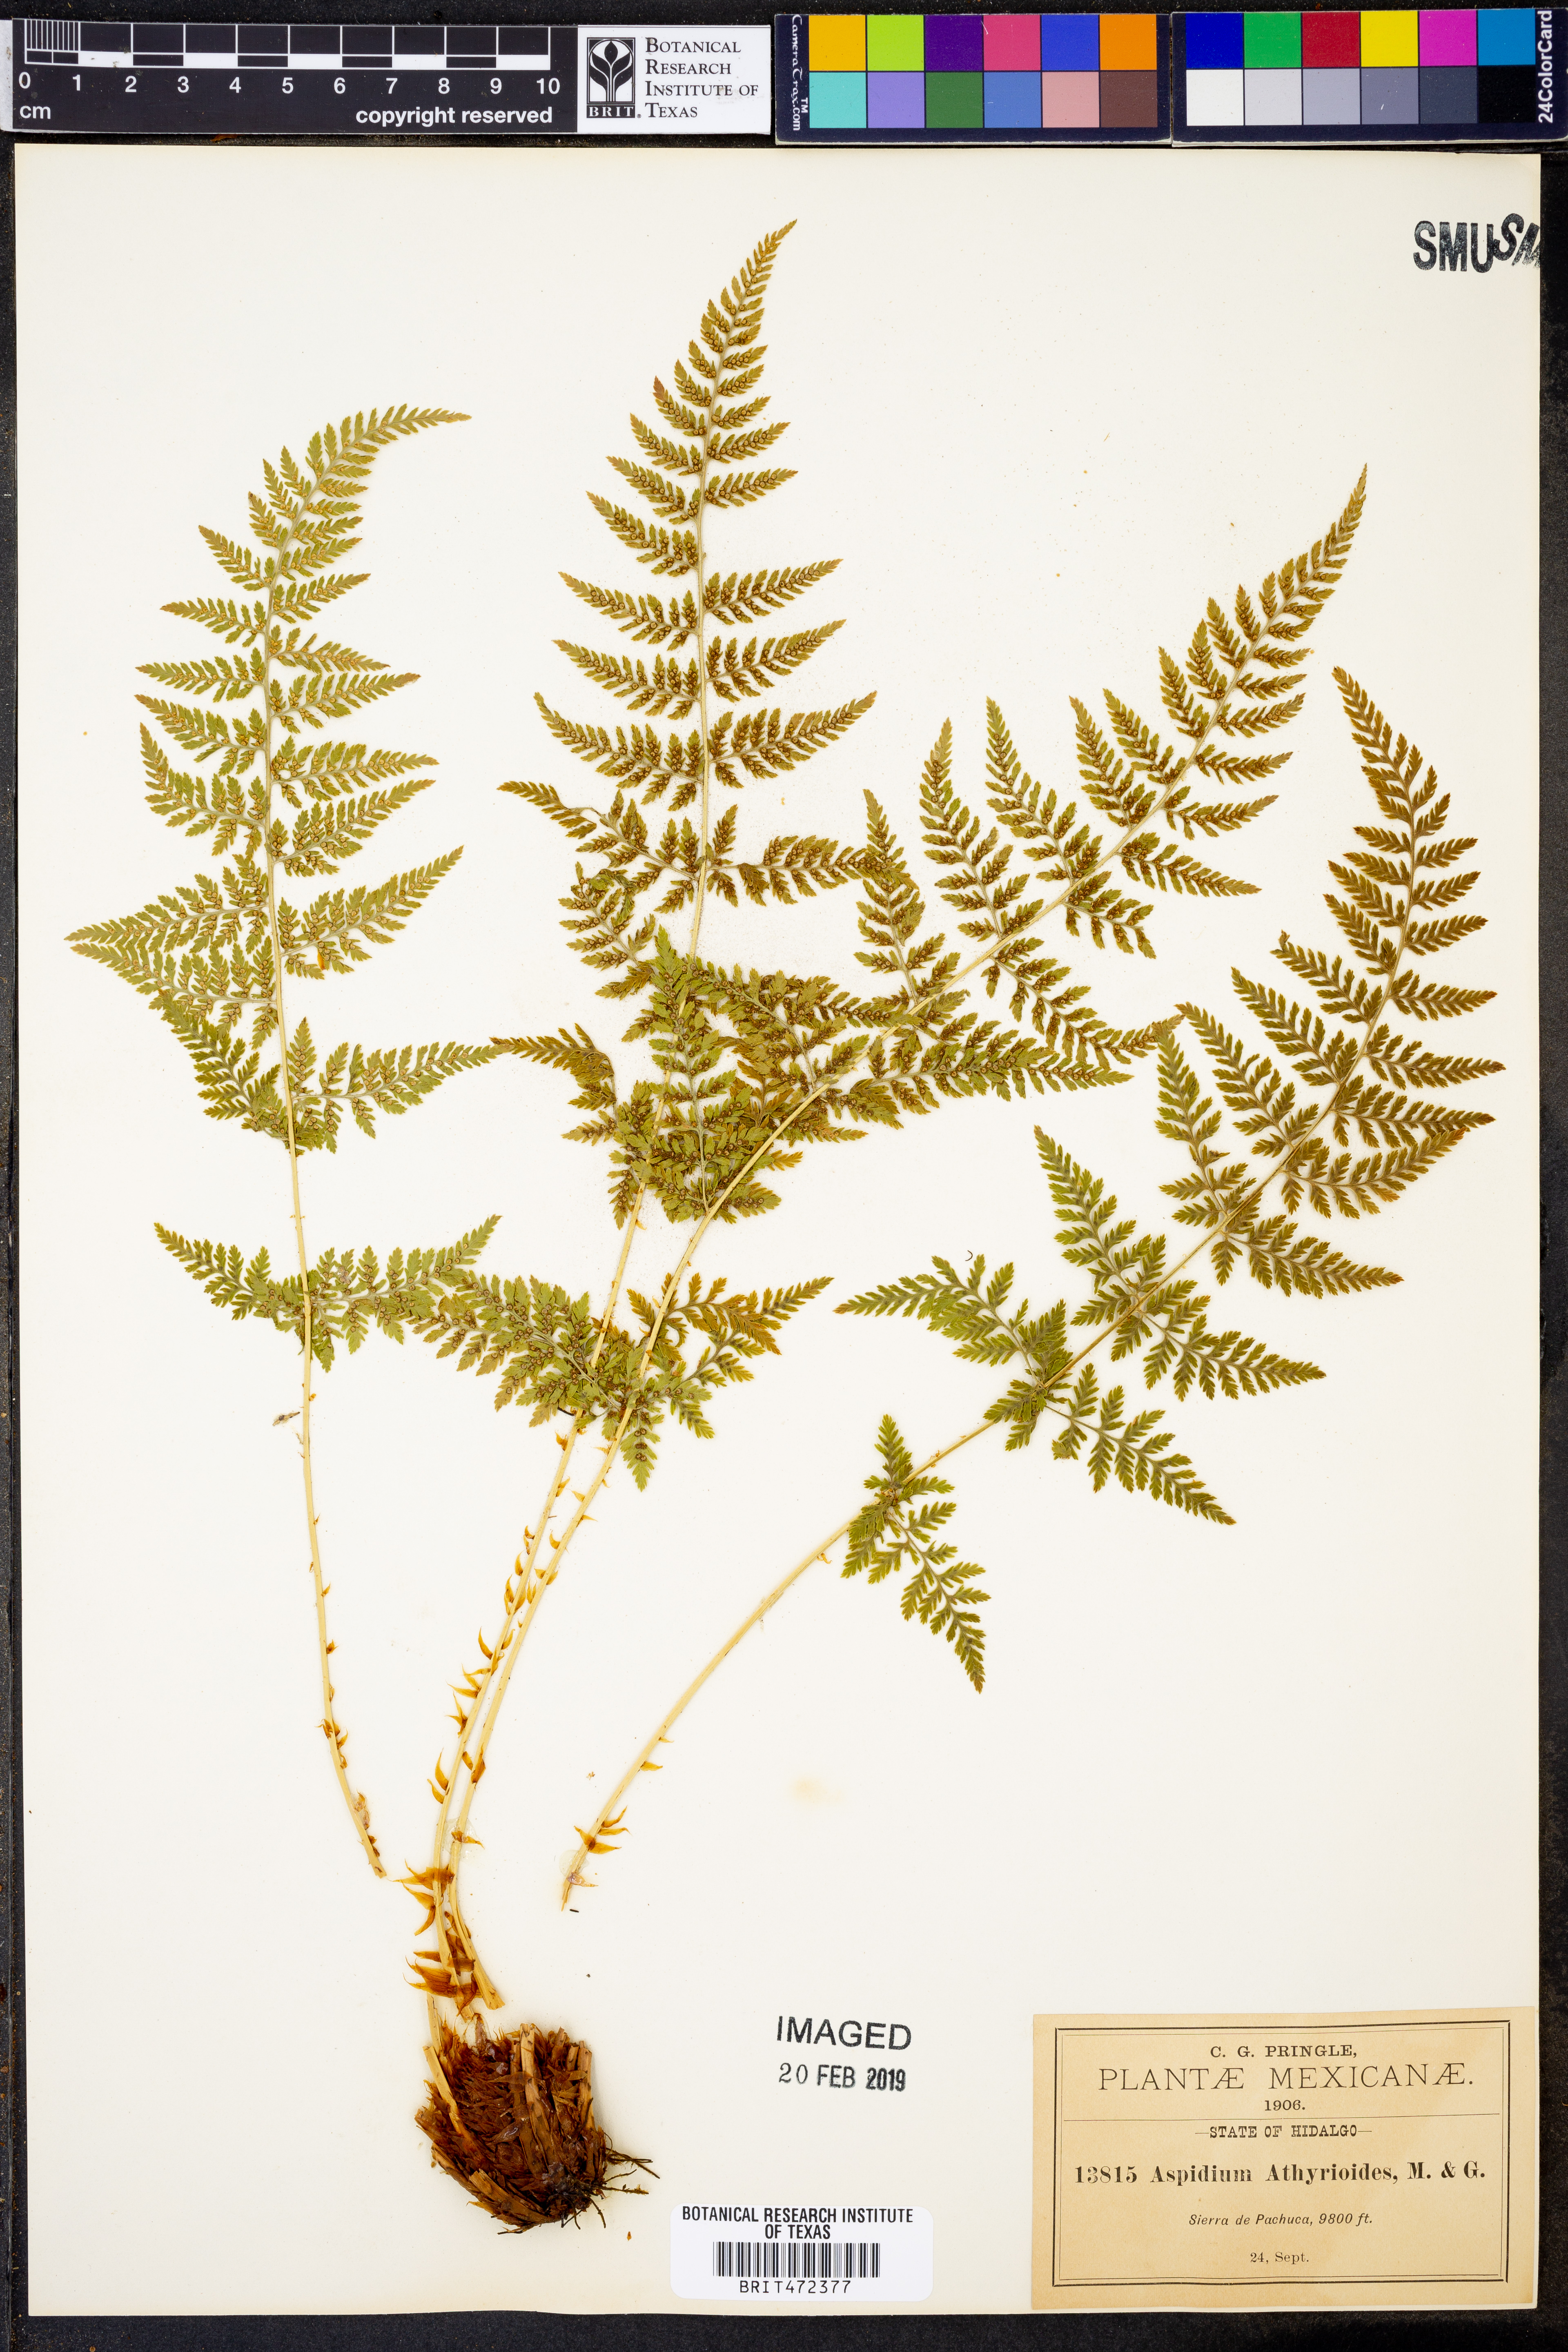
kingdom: Plantae
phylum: Tracheophyta
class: Polypodiopsida
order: Polypodiales
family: Dryopteridaceae
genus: Dryopteris
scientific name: Dryopteris cinnamomea
